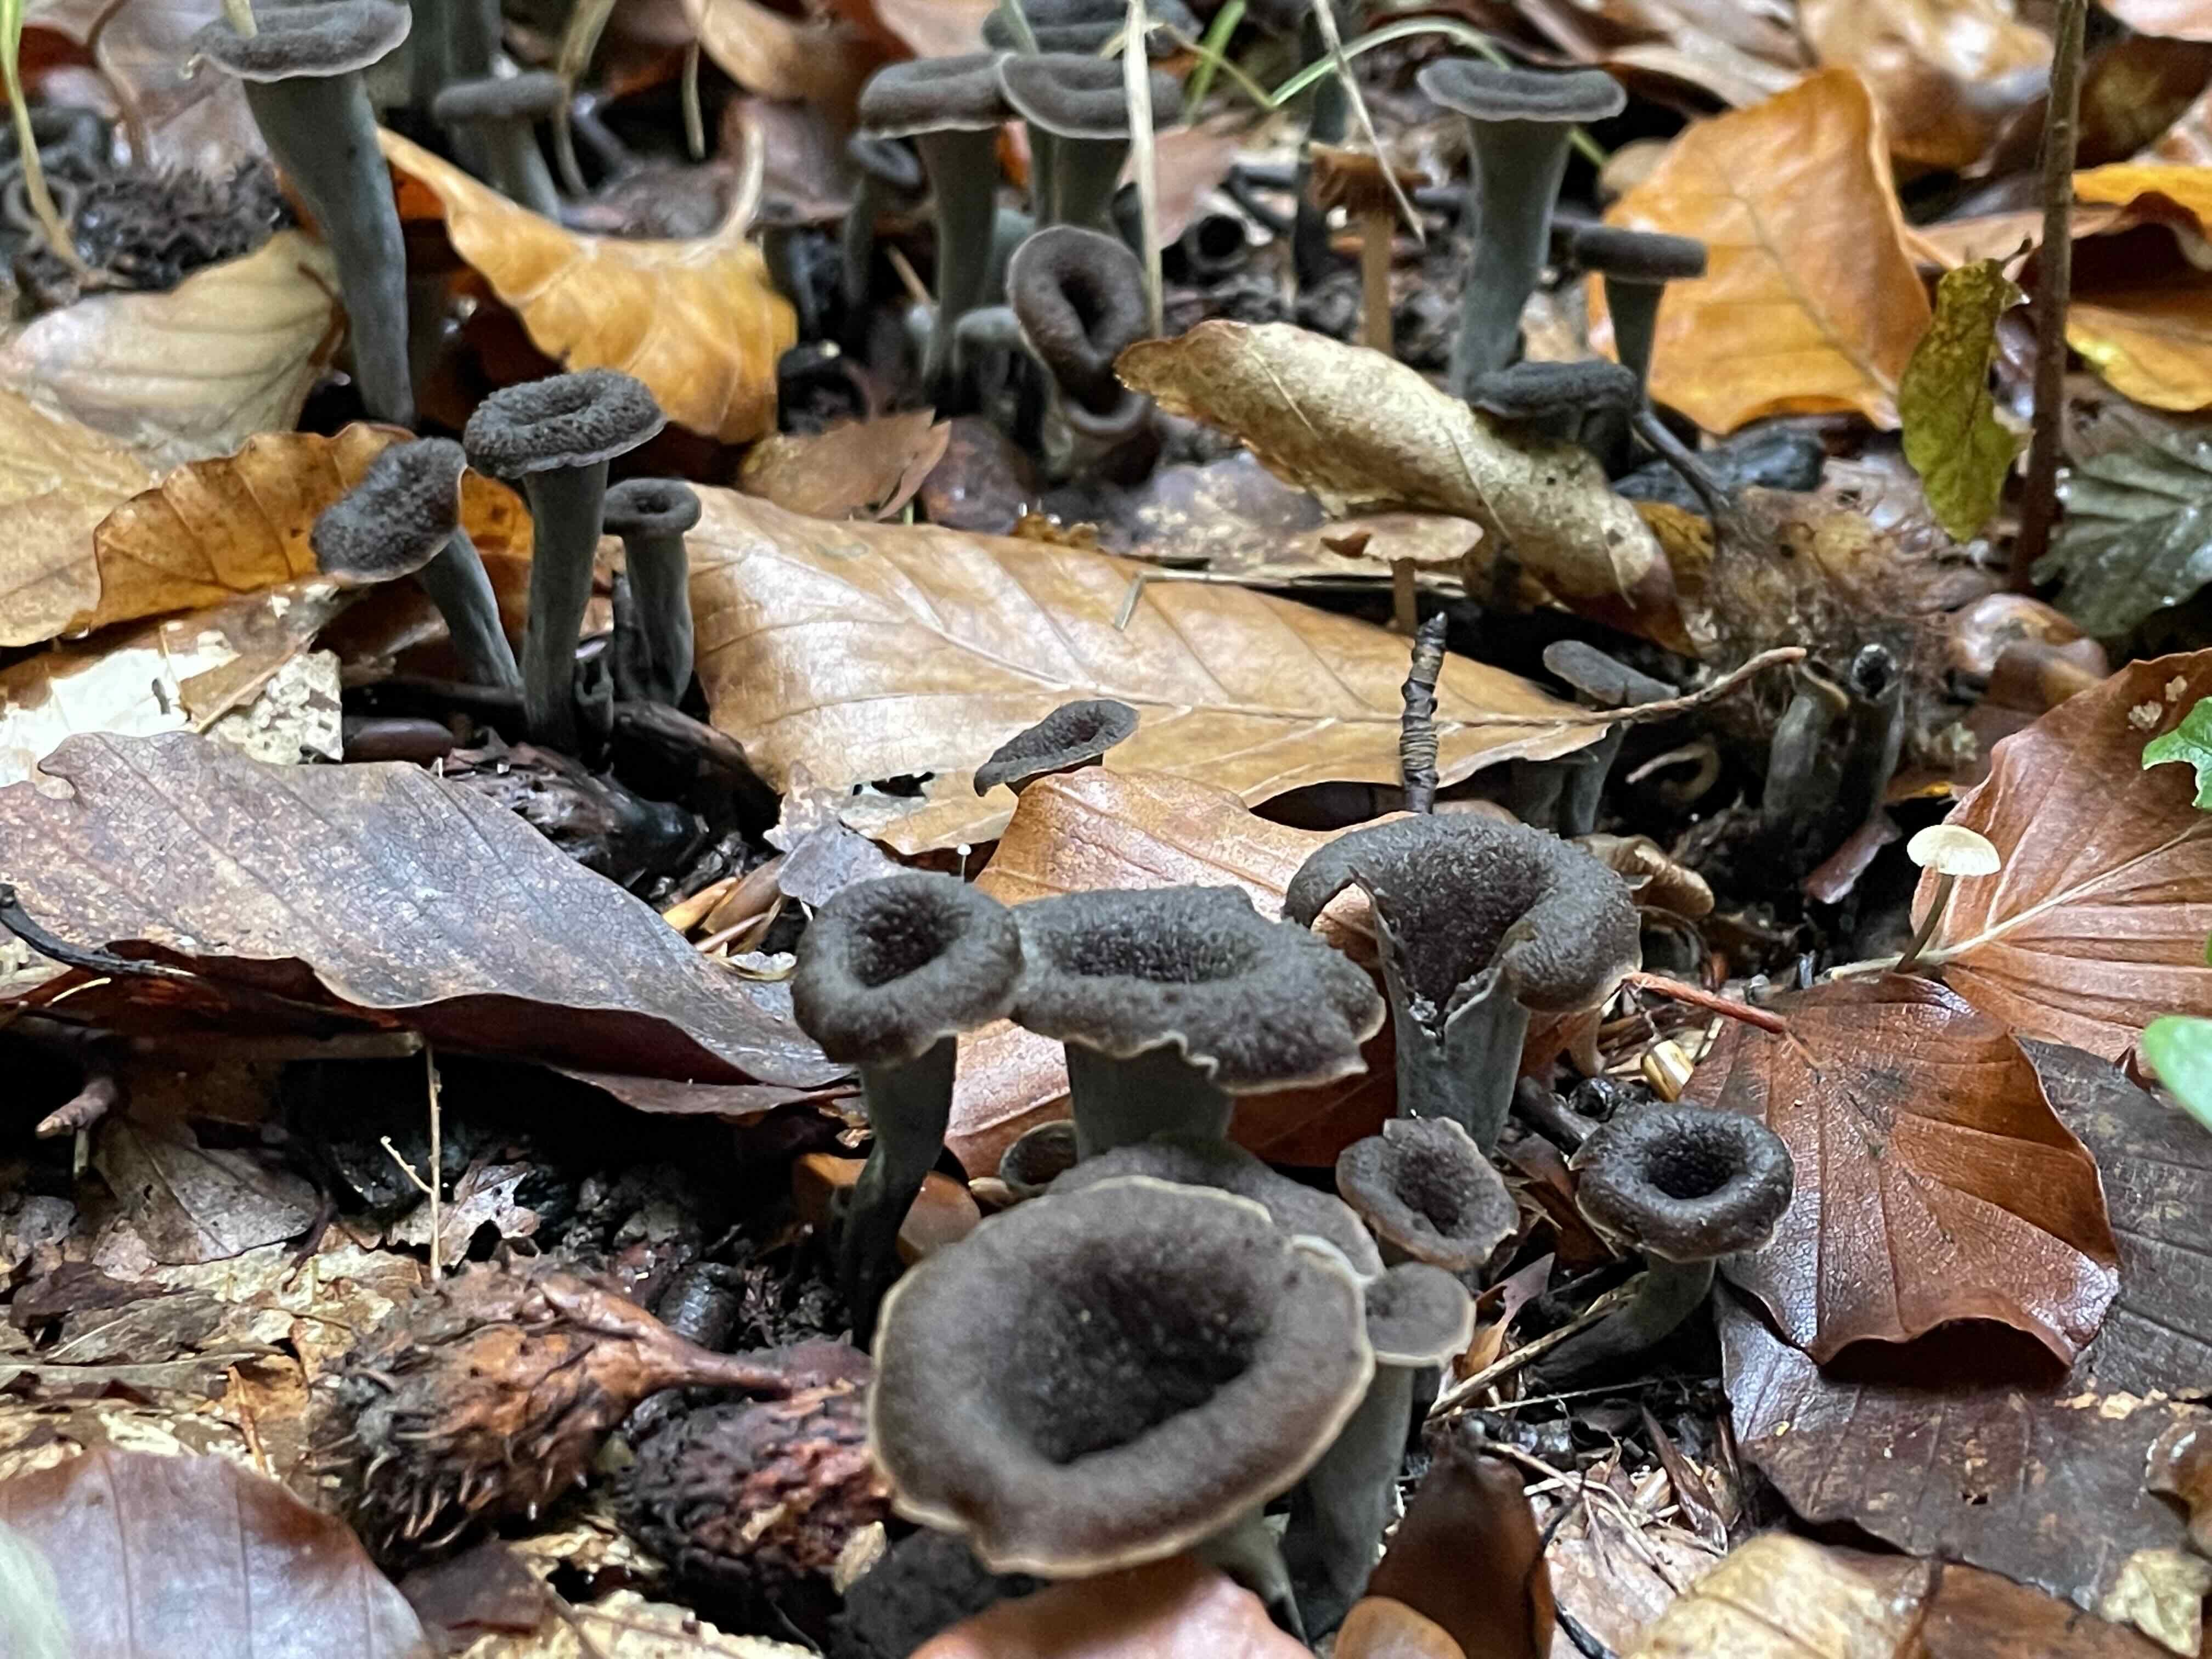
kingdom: Fungi
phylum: Basidiomycota
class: Agaricomycetes
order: Cantharellales
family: Hydnaceae
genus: Craterellus
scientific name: Craterellus cornucopioides
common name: trompetsvamp
